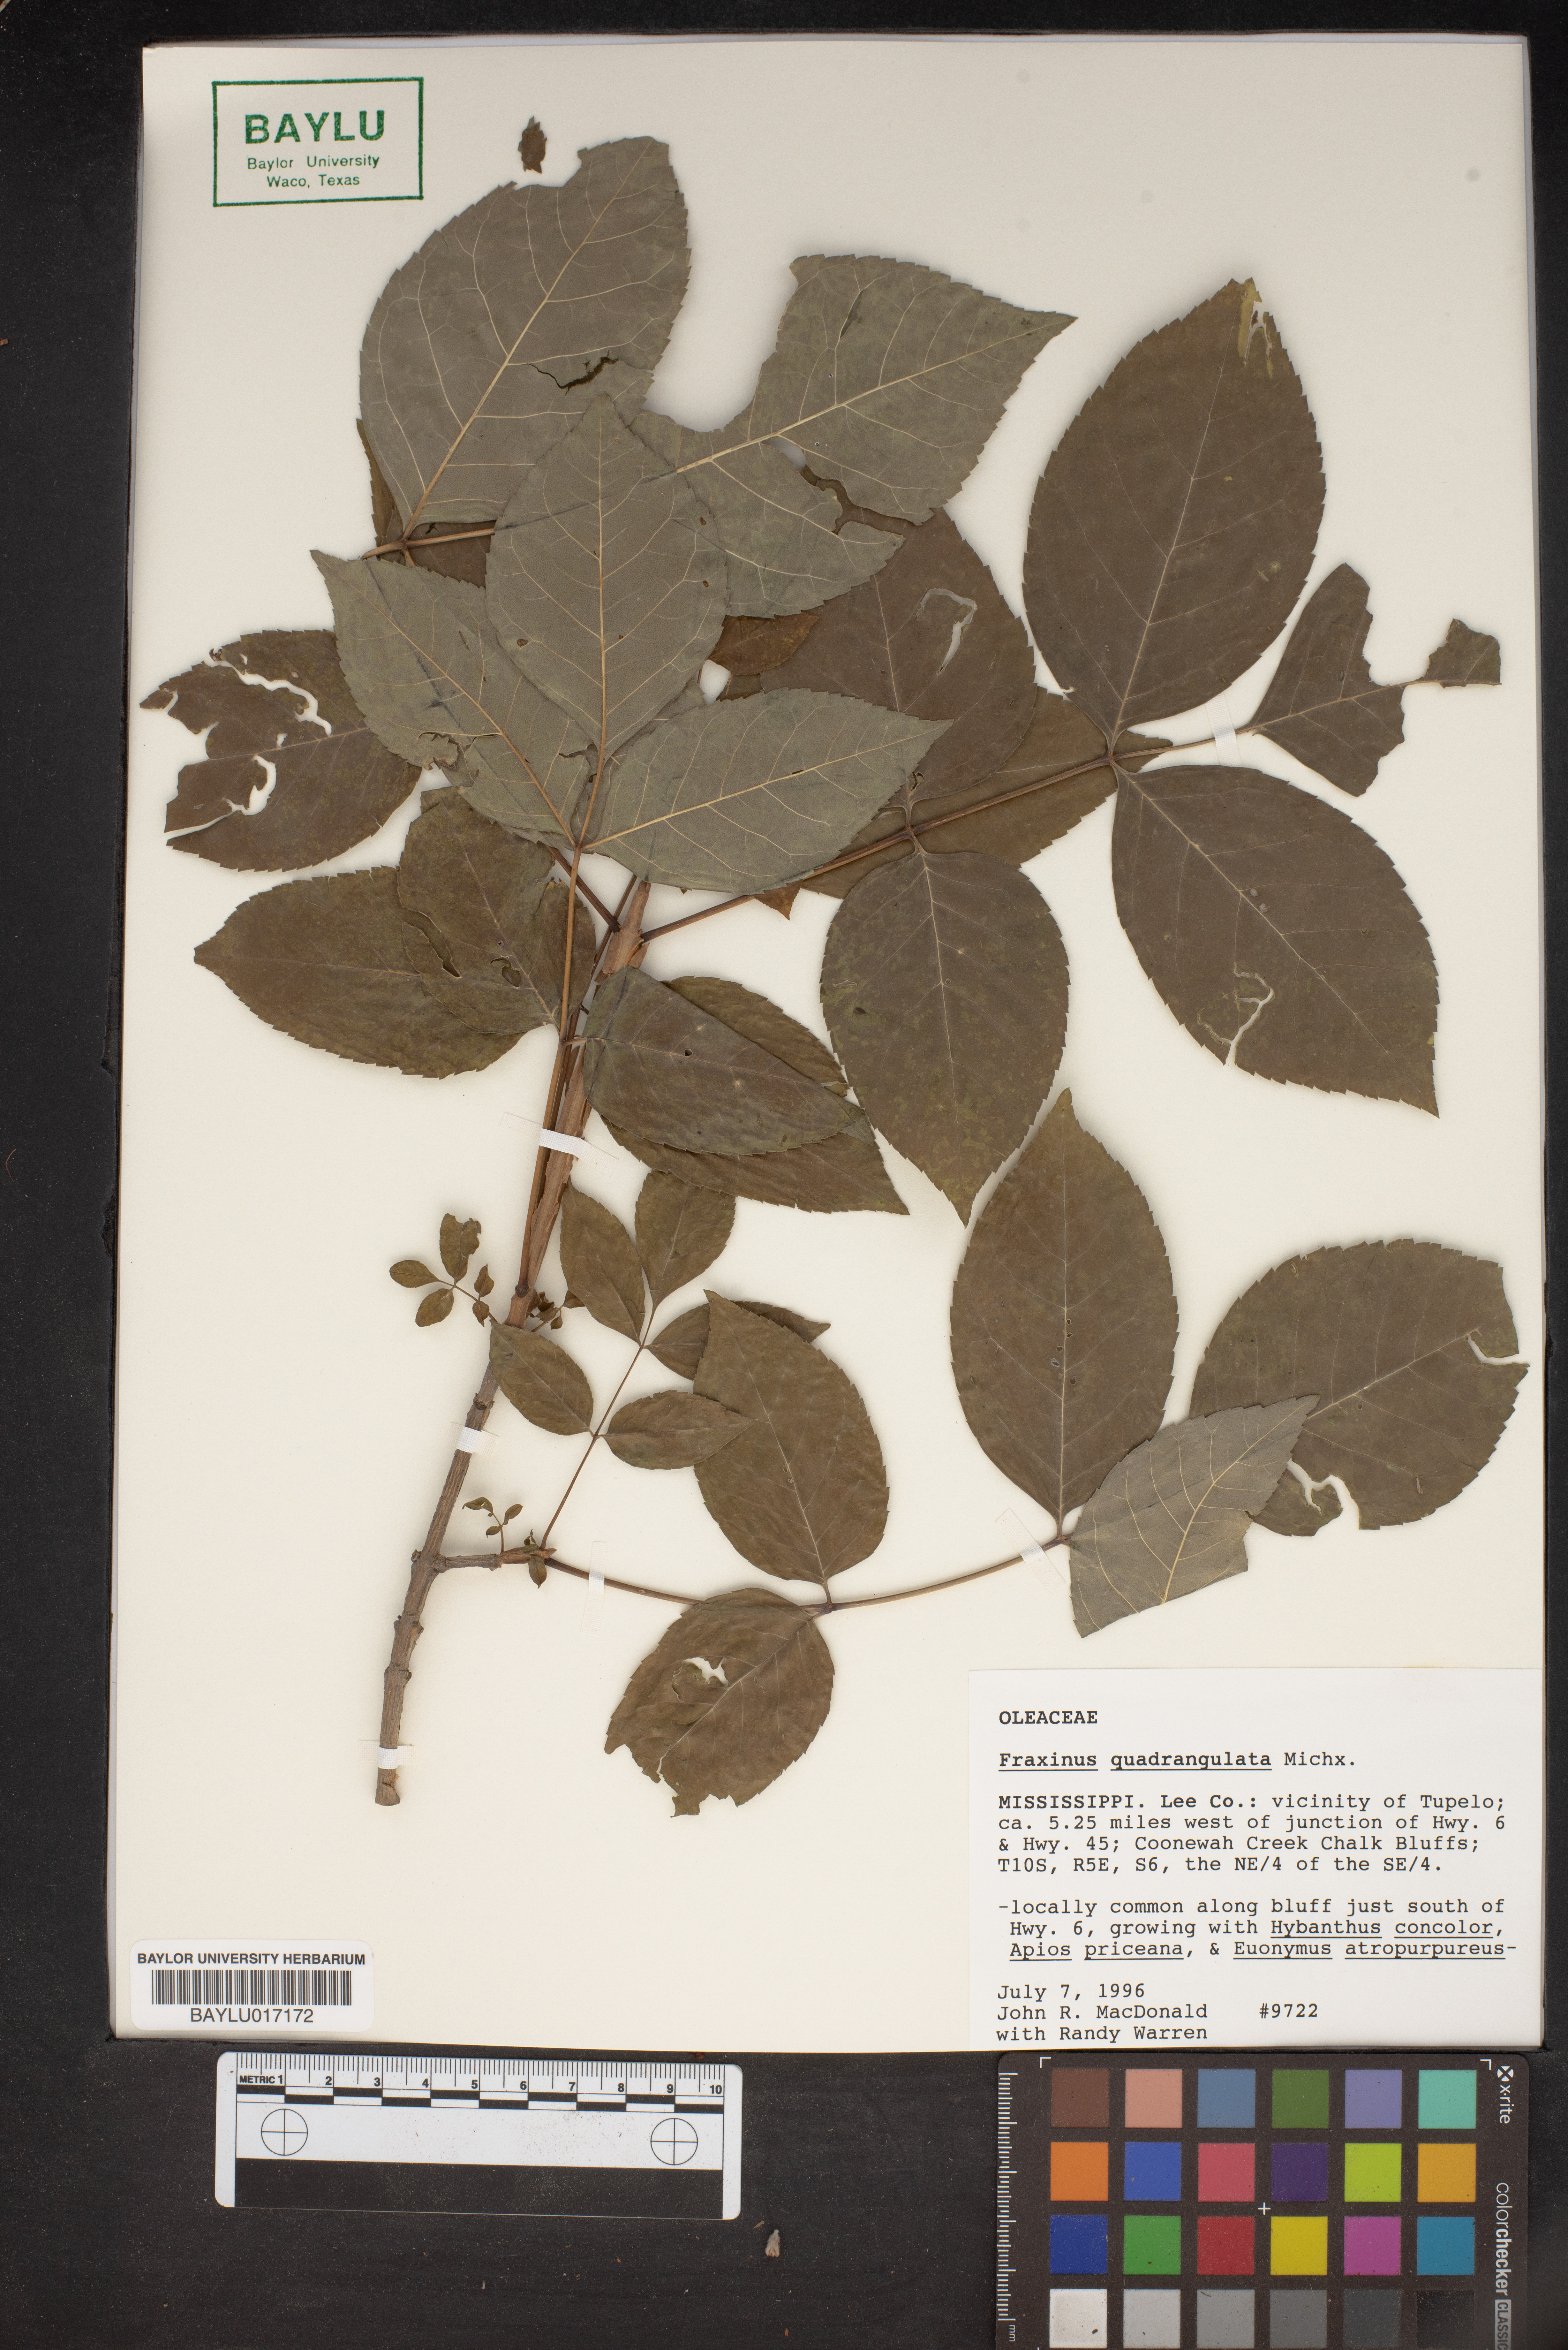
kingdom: Plantae
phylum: Tracheophyta
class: Magnoliopsida
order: Lamiales
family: Oleaceae
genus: Fraxinus
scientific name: Fraxinus quadrangulata
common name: Blue ash
